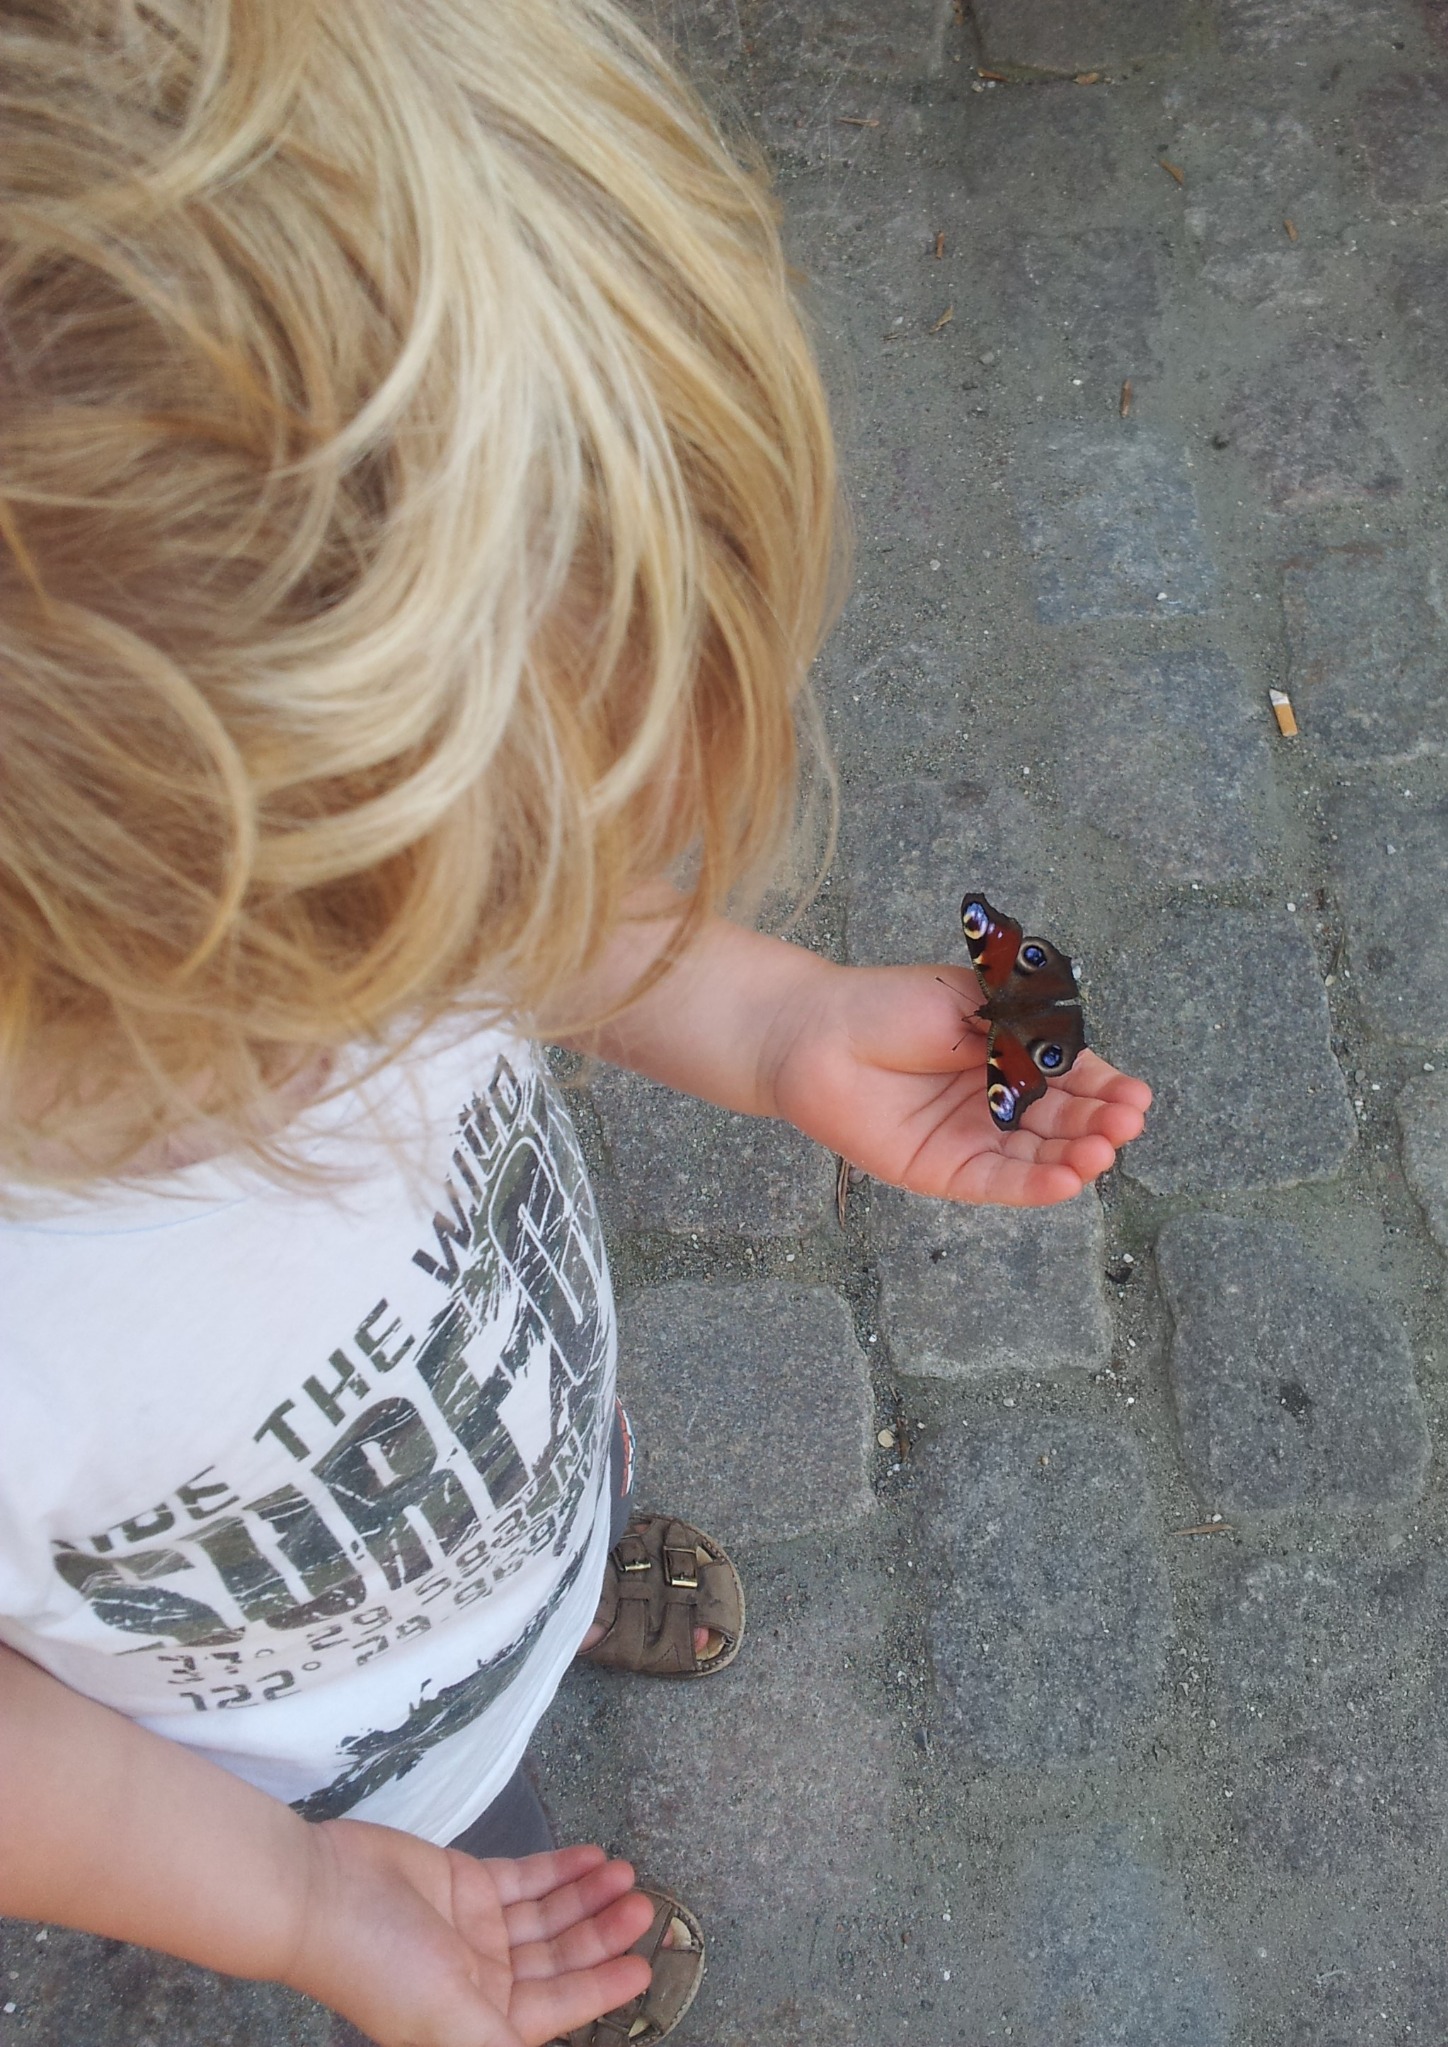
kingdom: Animalia
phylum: Arthropoda
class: Insecta
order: Lepidoptera
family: Nymphalidae
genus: Aglais
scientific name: Aglais io
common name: Dagpåfugleøje
